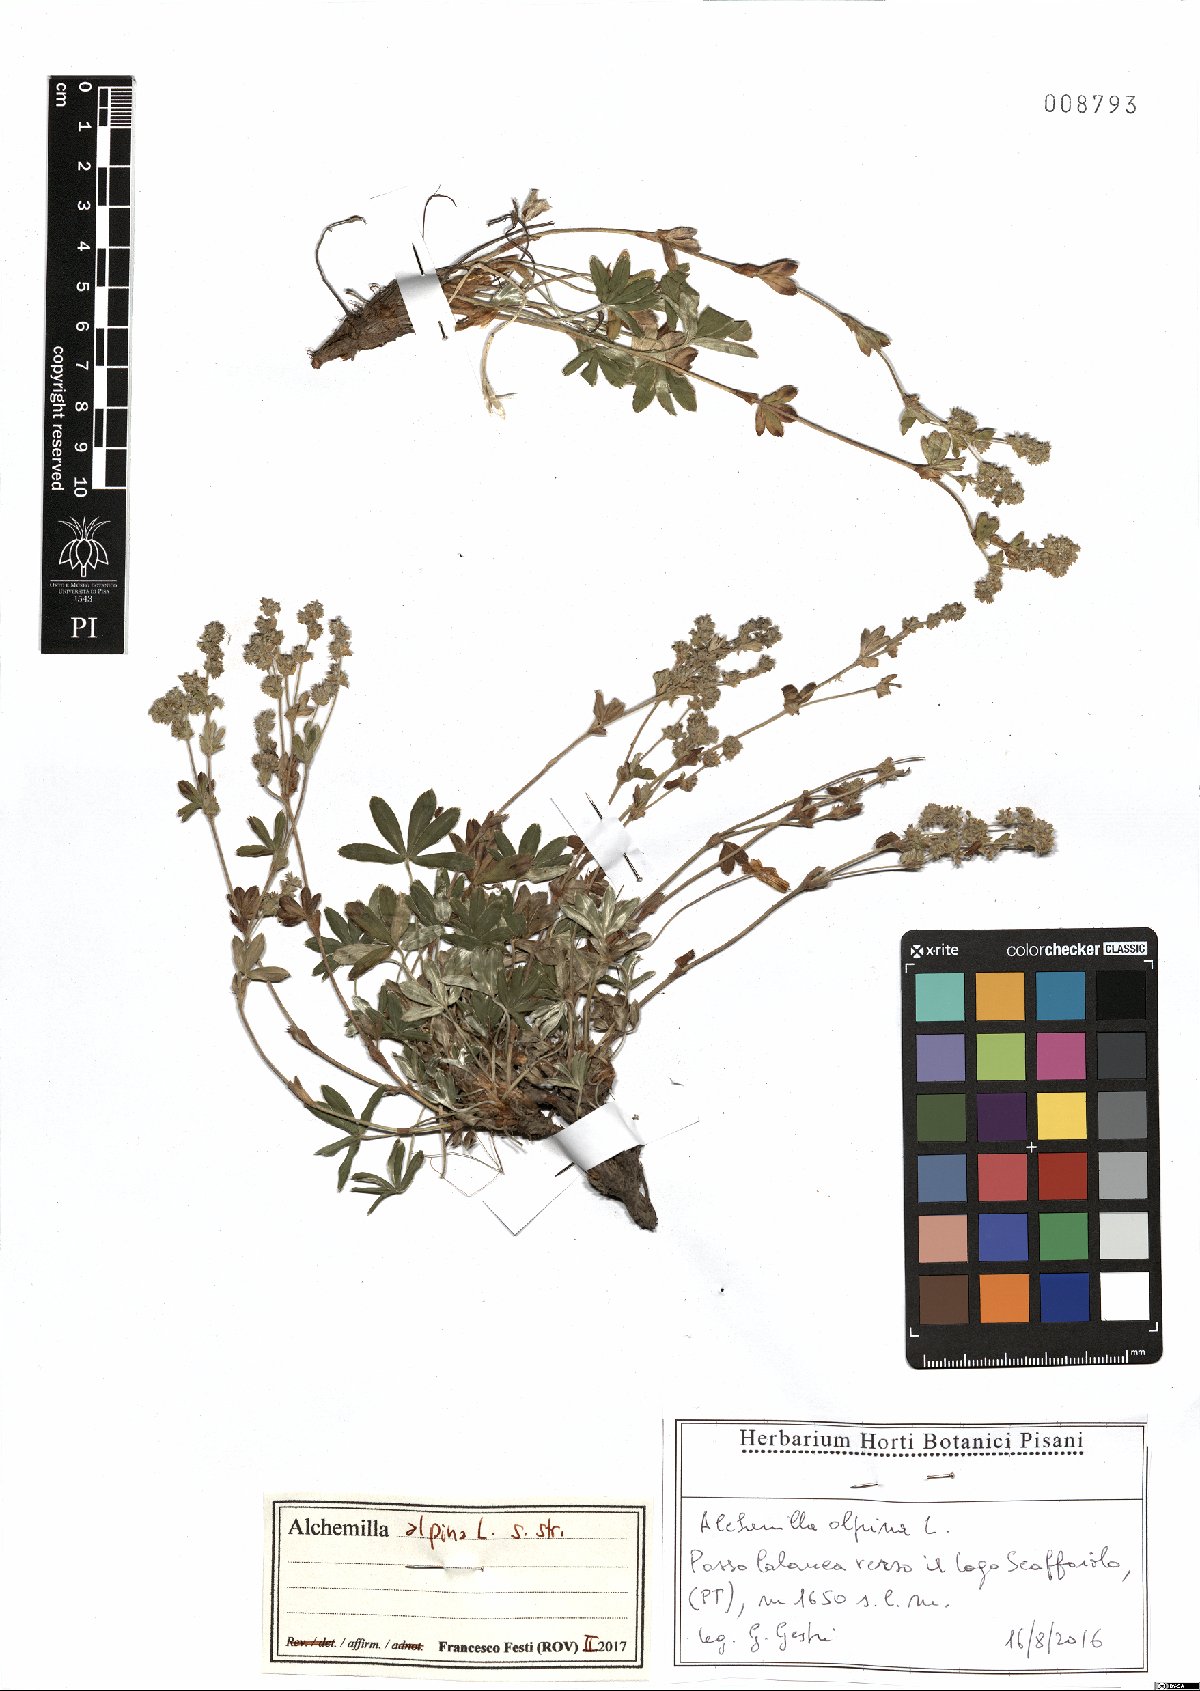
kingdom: Plantae
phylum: Tracheophyta
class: Magnoliopsida
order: Rosales
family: Rosaceae
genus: Alchemilla
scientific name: Alchemilla alpina
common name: Alpine lady's-mantle
